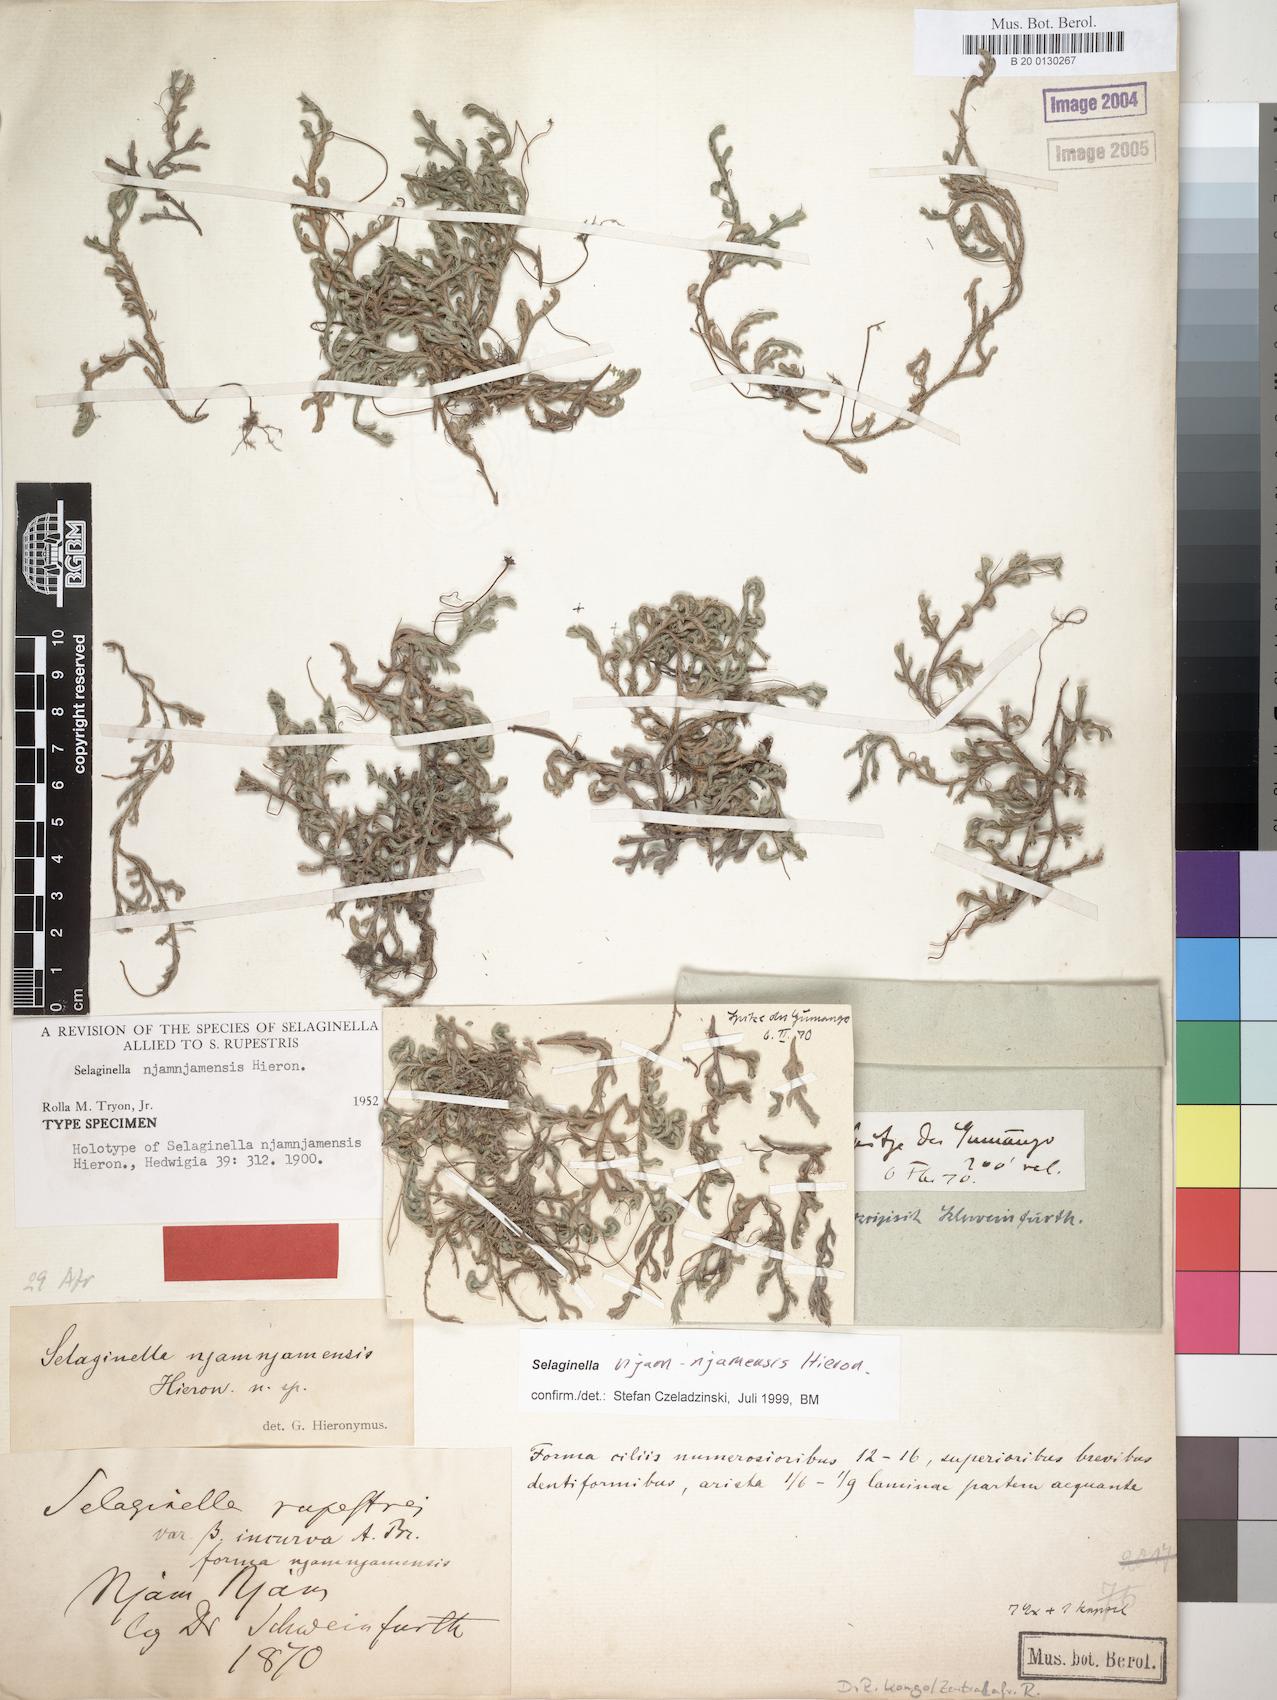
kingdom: Plantae
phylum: Tracheophyta
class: Lycopodiopsida
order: Selaginellales
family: Selaginellaceae
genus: Selaginella
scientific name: Selaginella njamnjamensis
